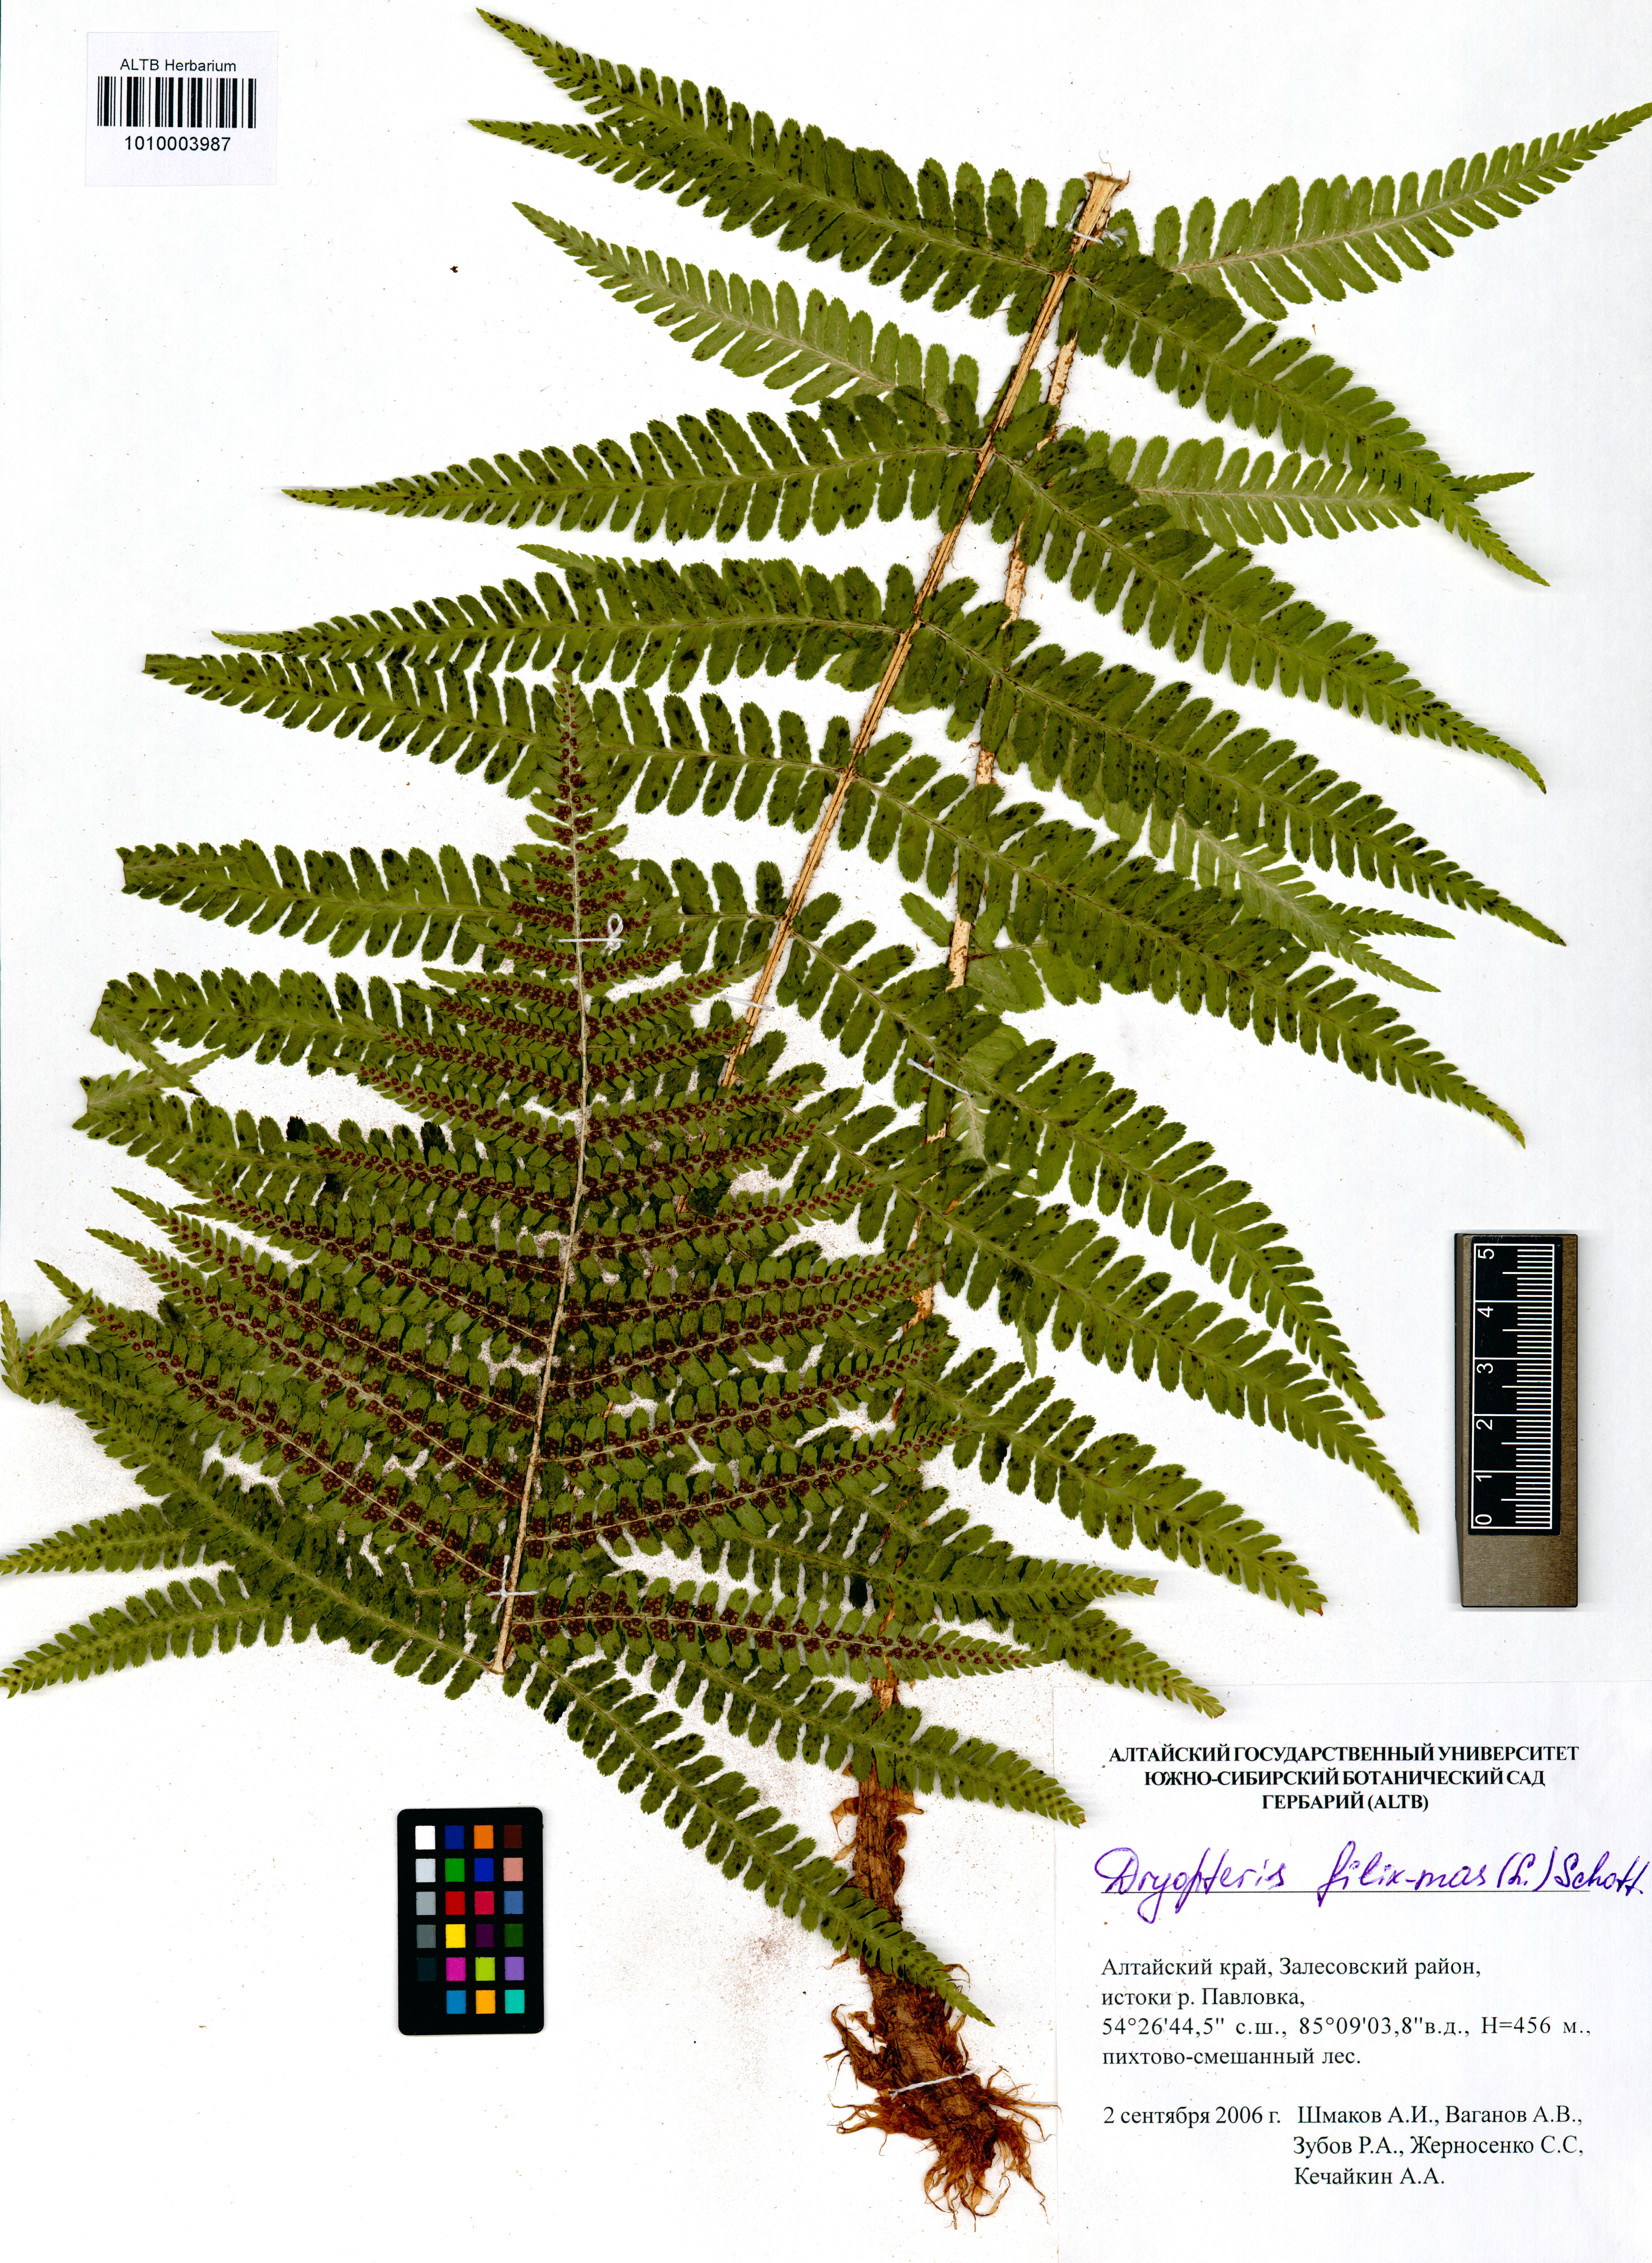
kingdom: Plantae
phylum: Tracheophyta
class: Polypodiopsida
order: Polypodiales
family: Dryopteridaceae
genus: Dryopteris
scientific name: Dryopteris filix-mas
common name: Male fern
